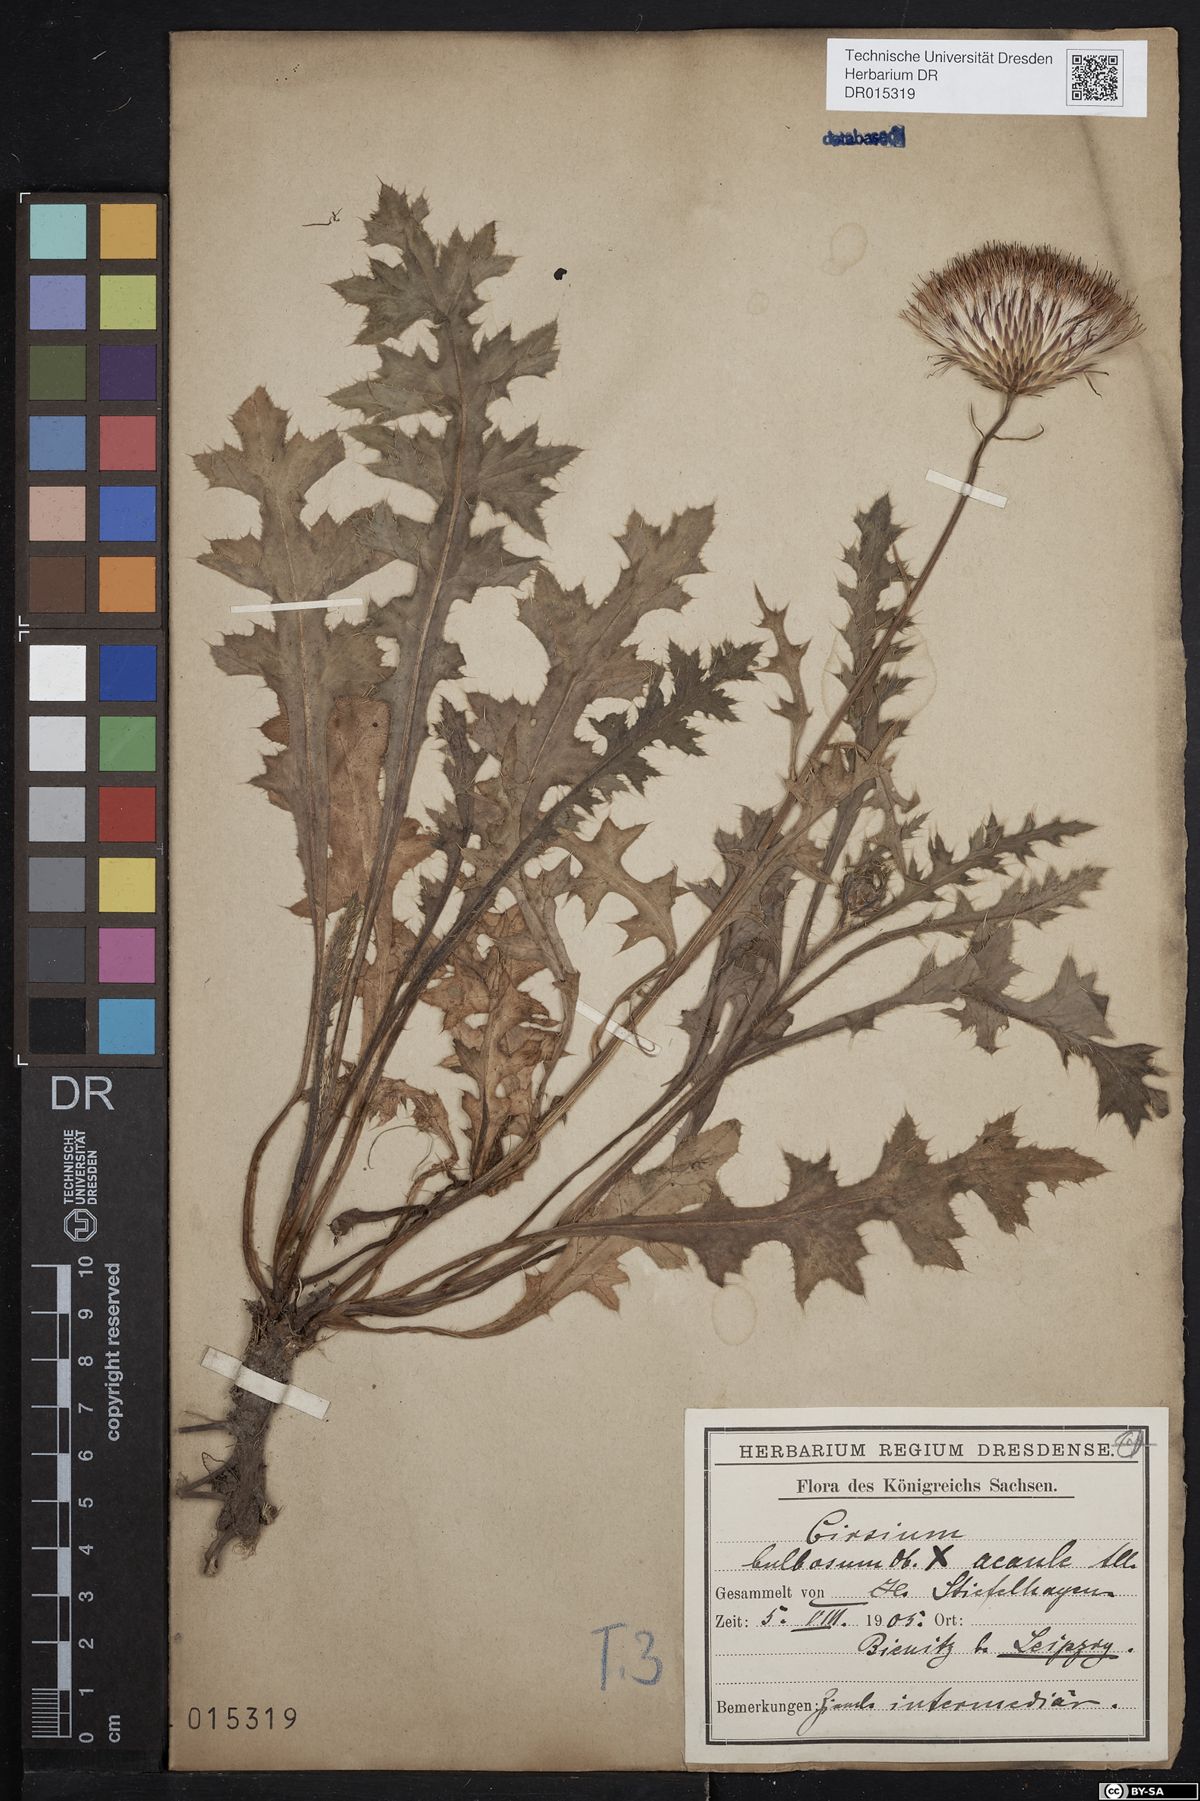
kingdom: Plantae
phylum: Tracheophyta
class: Magnoliopsida
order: Asterales
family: Asteraceae
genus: Cirsium
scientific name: Cirsium medium
